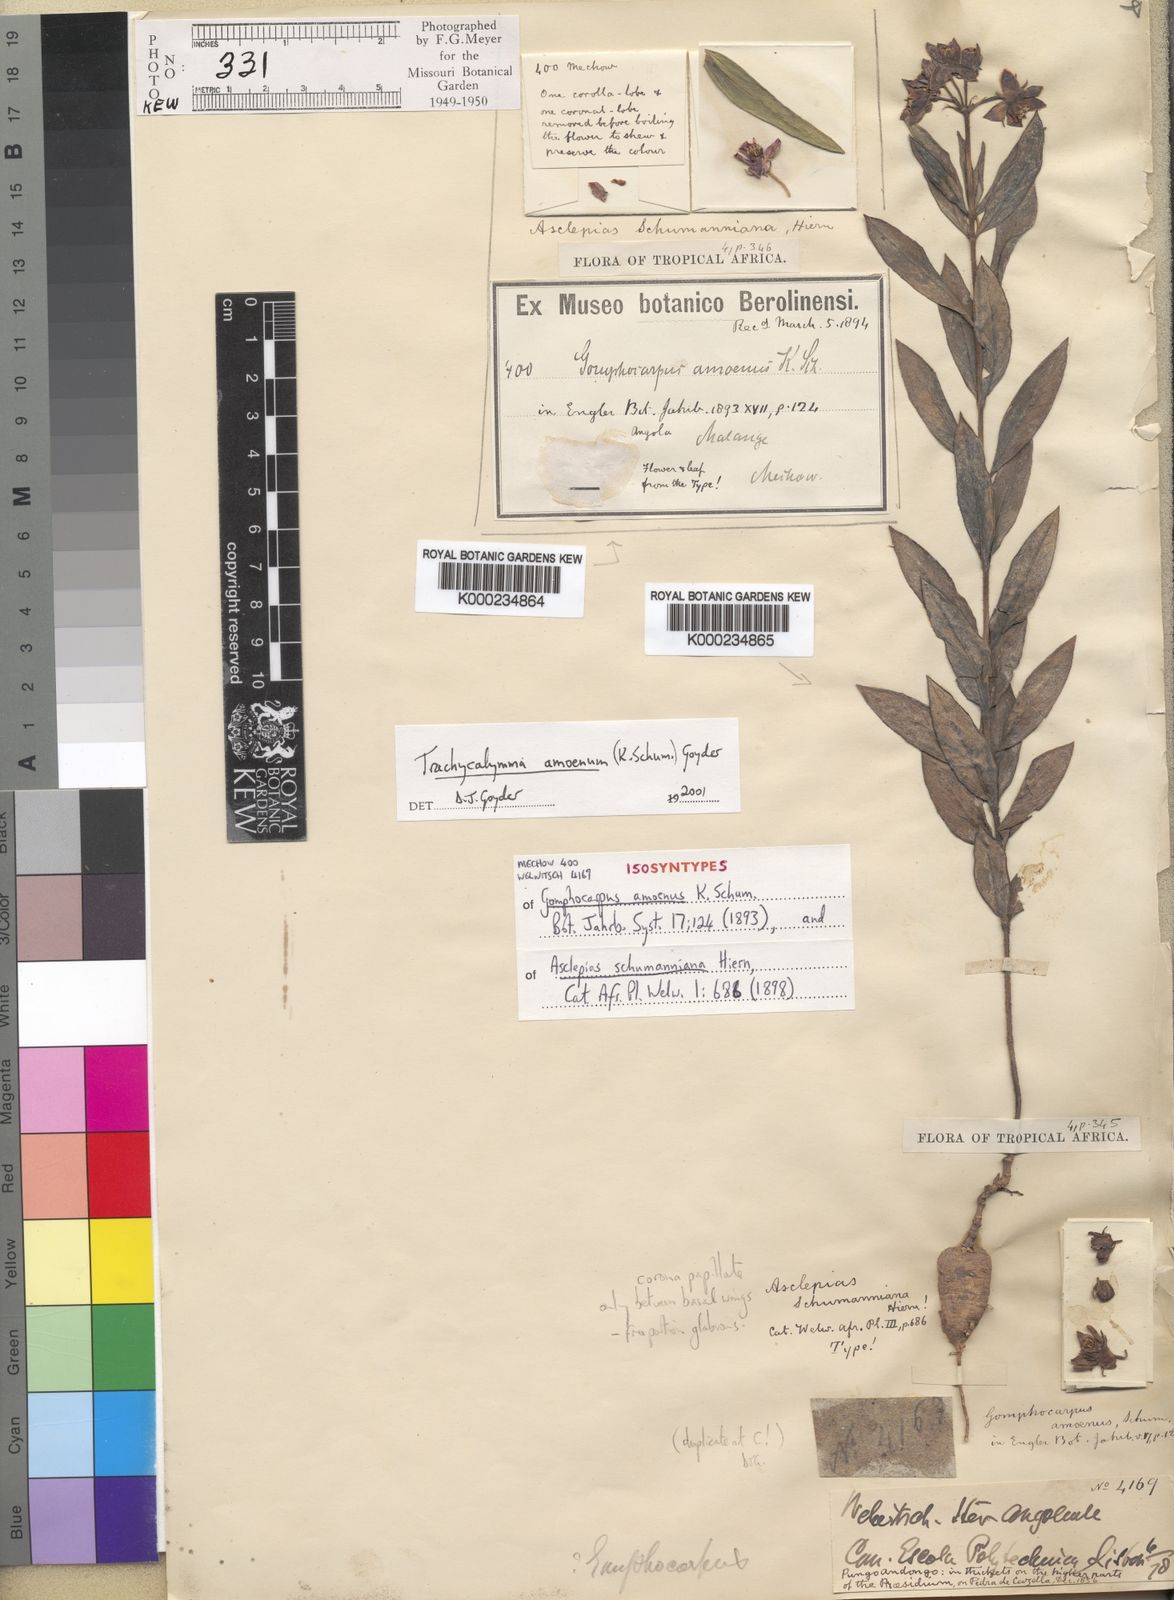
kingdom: Plantae
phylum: Tracheophyta
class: Magnoliopsida
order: Gentianales
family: Apocynaceae
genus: Asclepias
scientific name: Asclepias schumanniana
